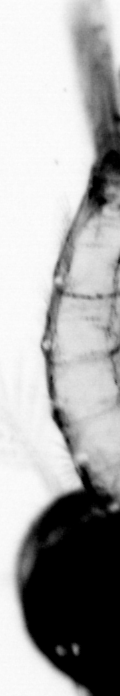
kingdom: Animalia
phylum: Annelida
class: Polychaeta
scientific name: Polychaeta
